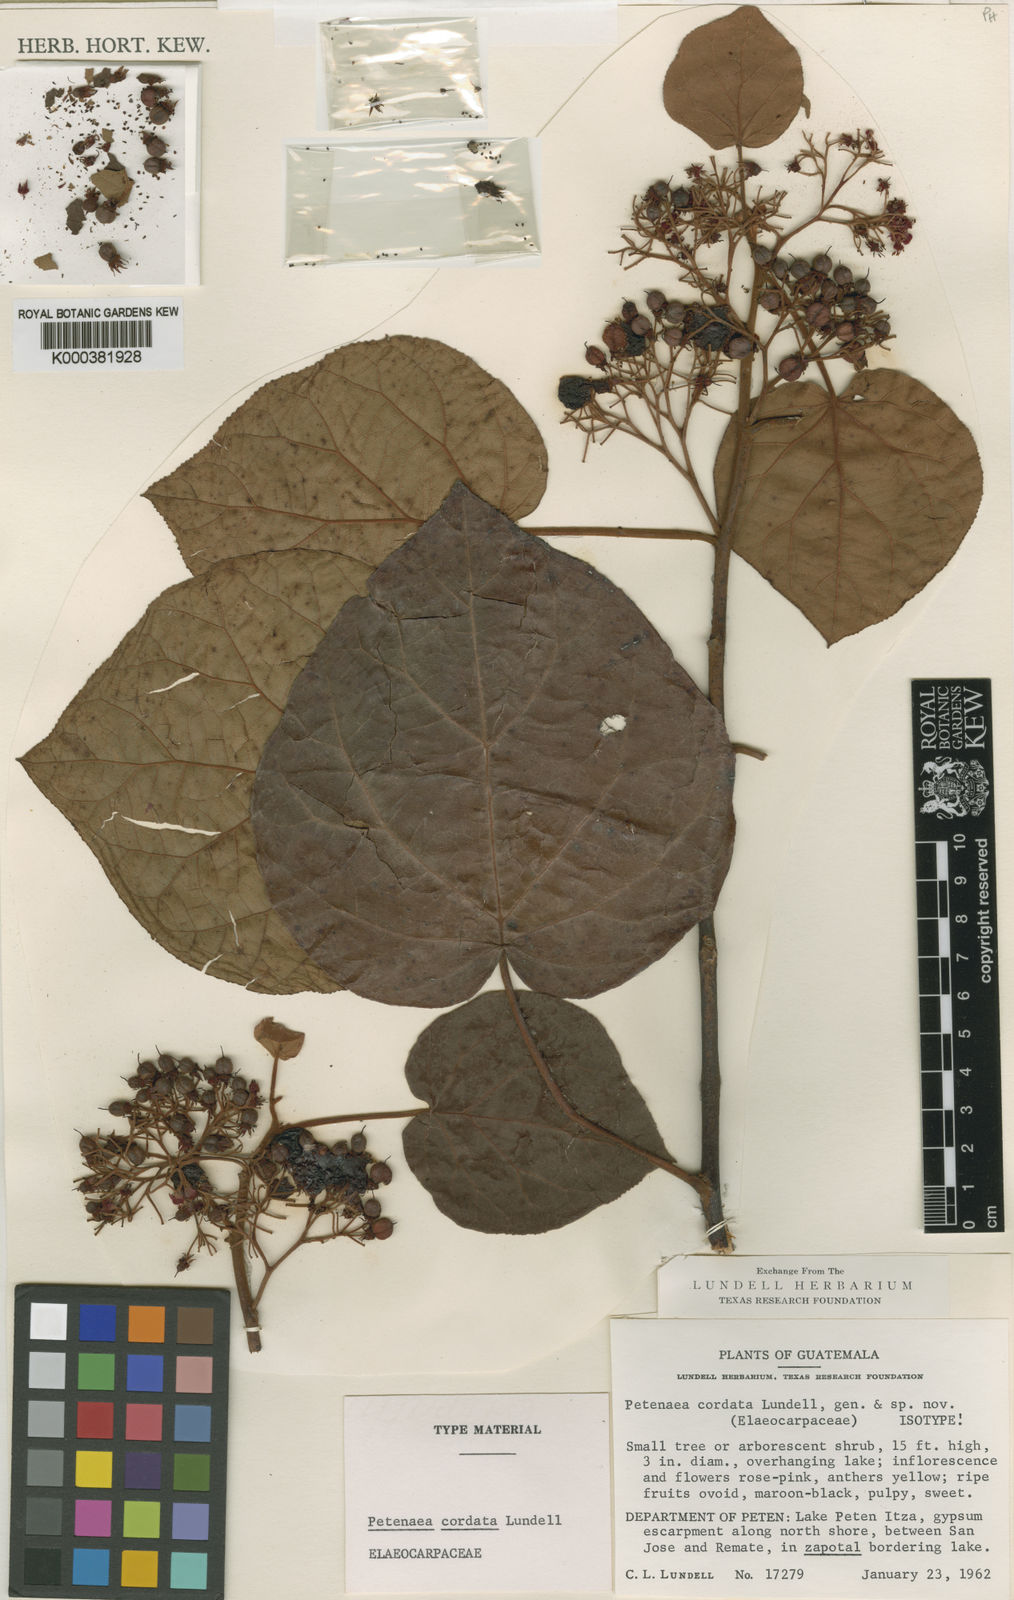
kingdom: Plantae
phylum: Tracheophyta
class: Magnoliopsida
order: Huerteales
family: Petenaeaceae
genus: Petenaea
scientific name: Petenaea cordata
